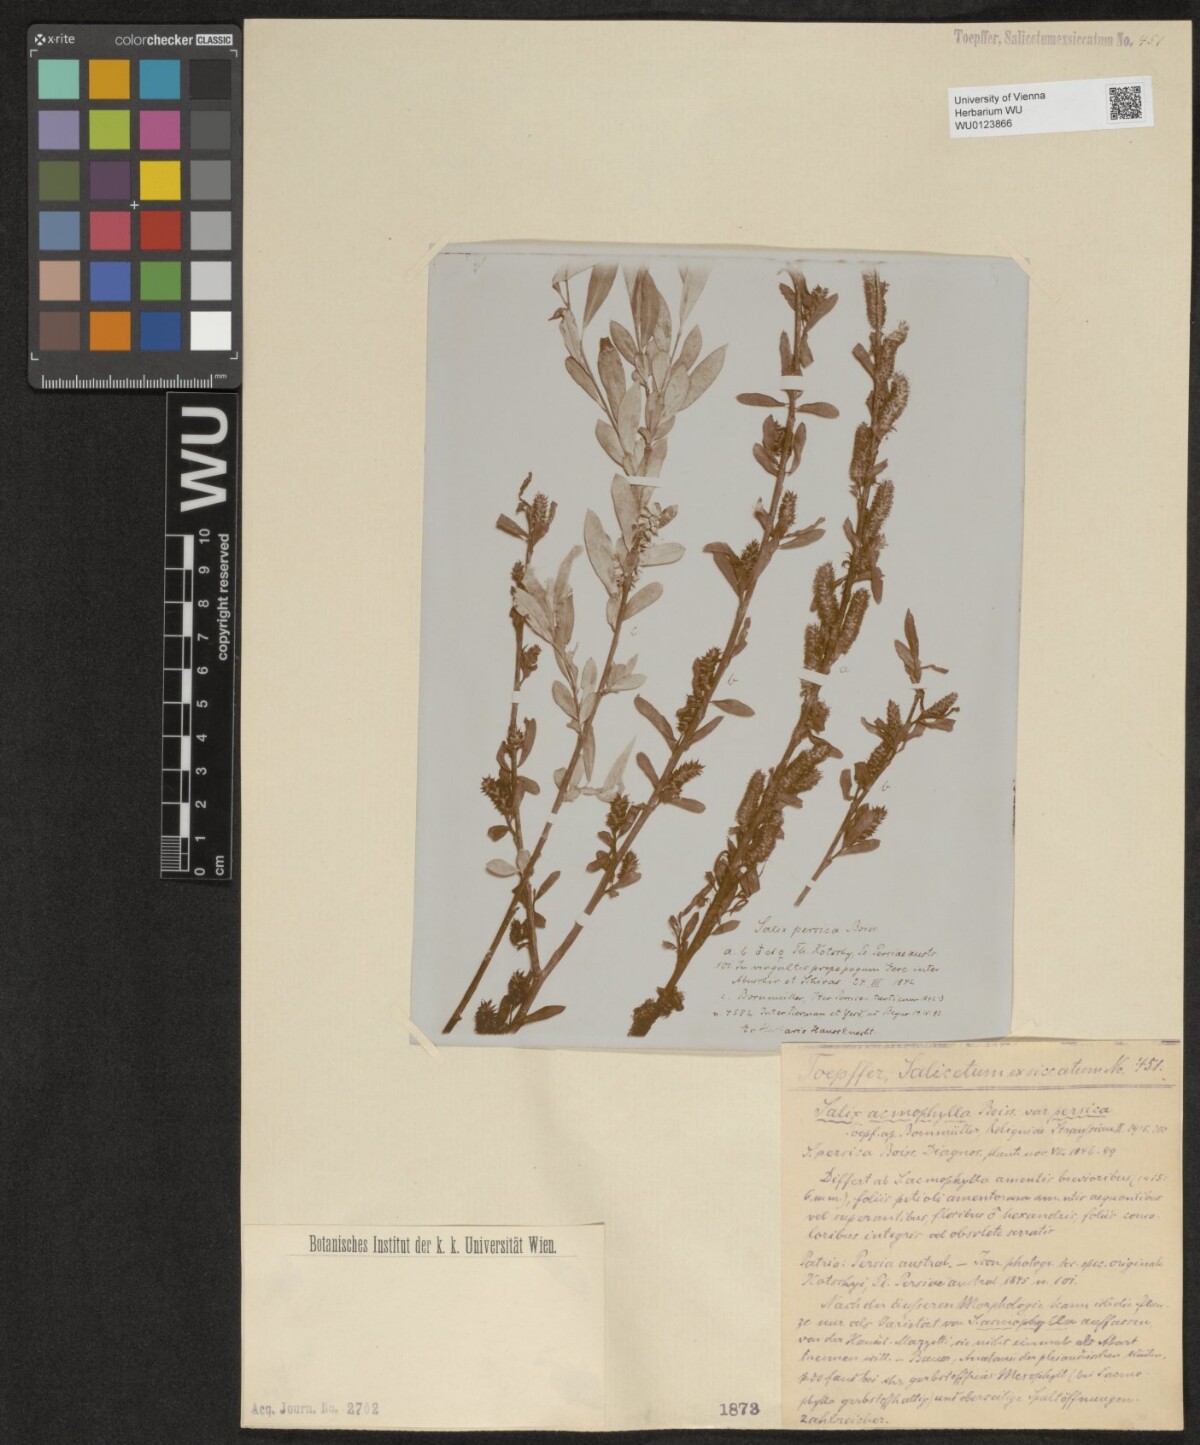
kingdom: Plantae
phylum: Tracheophyta
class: Magnoliopsida
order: Malpighiales
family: Salicaceae
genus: Salix
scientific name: Salix acmophylla
